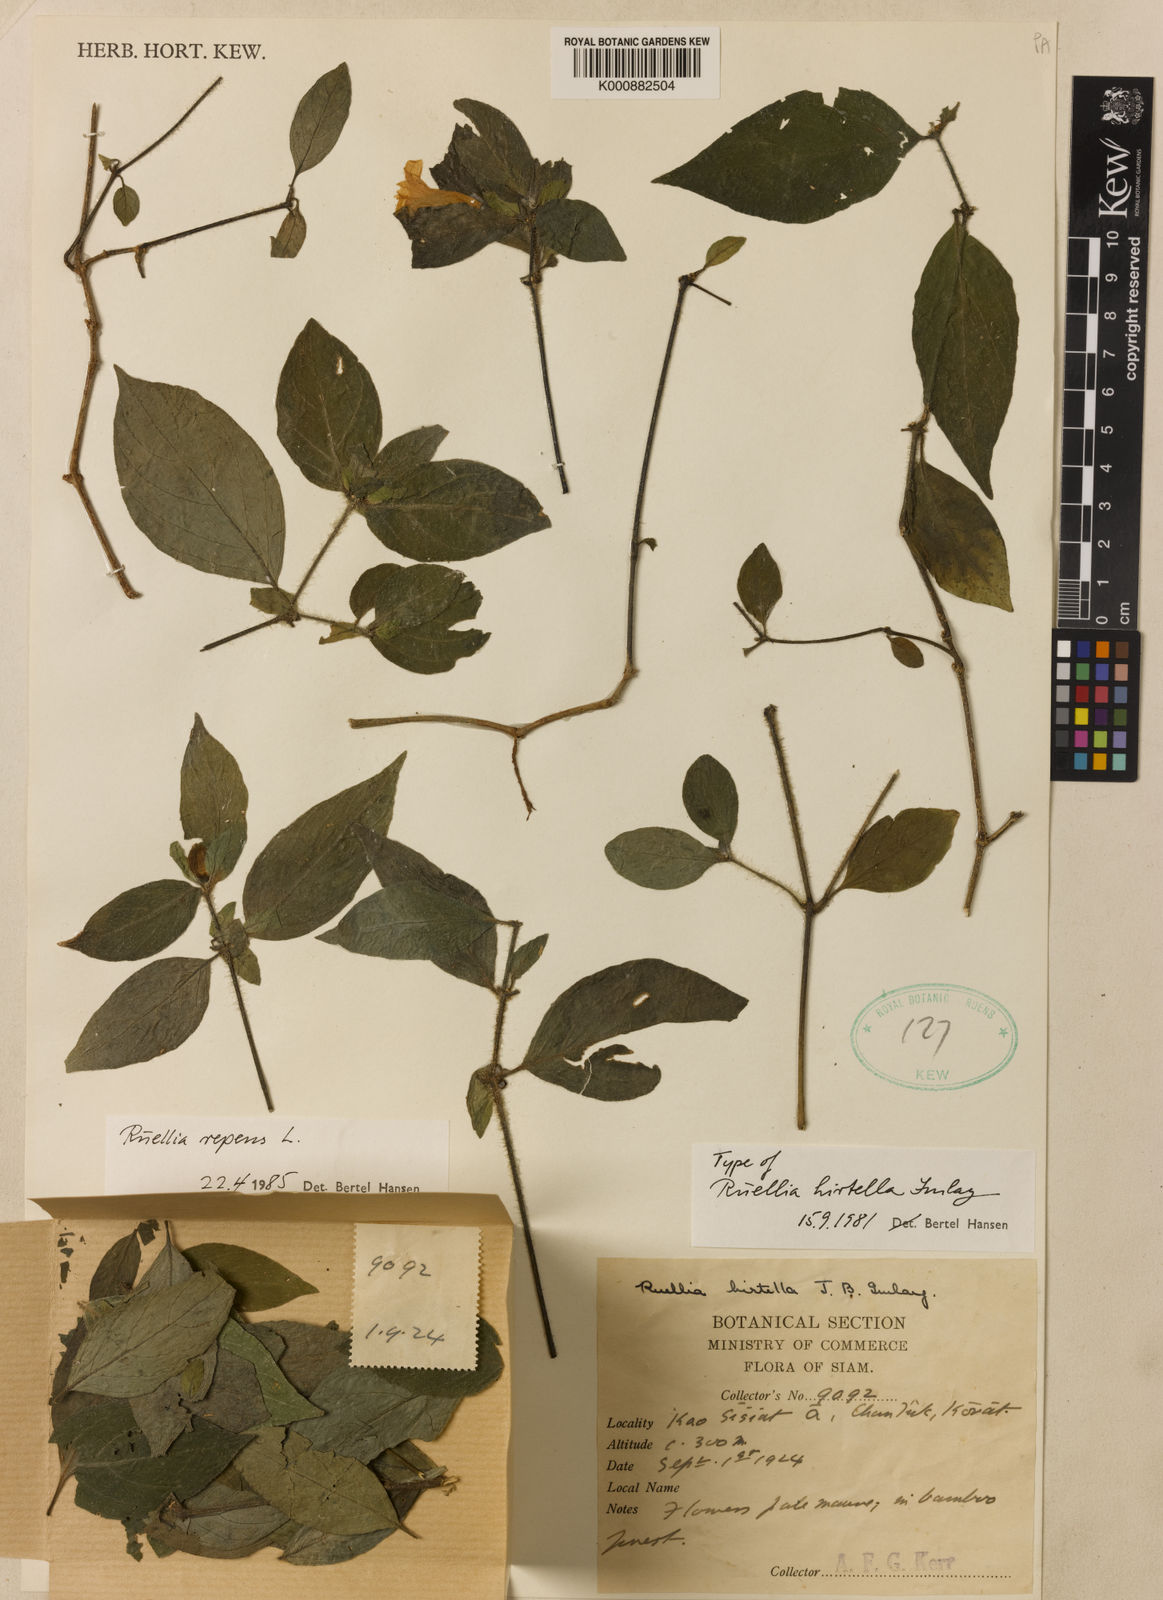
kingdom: Plantae
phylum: Tracheophyta
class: Magnoliopsida
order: Lamiales
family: Acanthaceae
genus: Ruellia
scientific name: Ruellia repens
